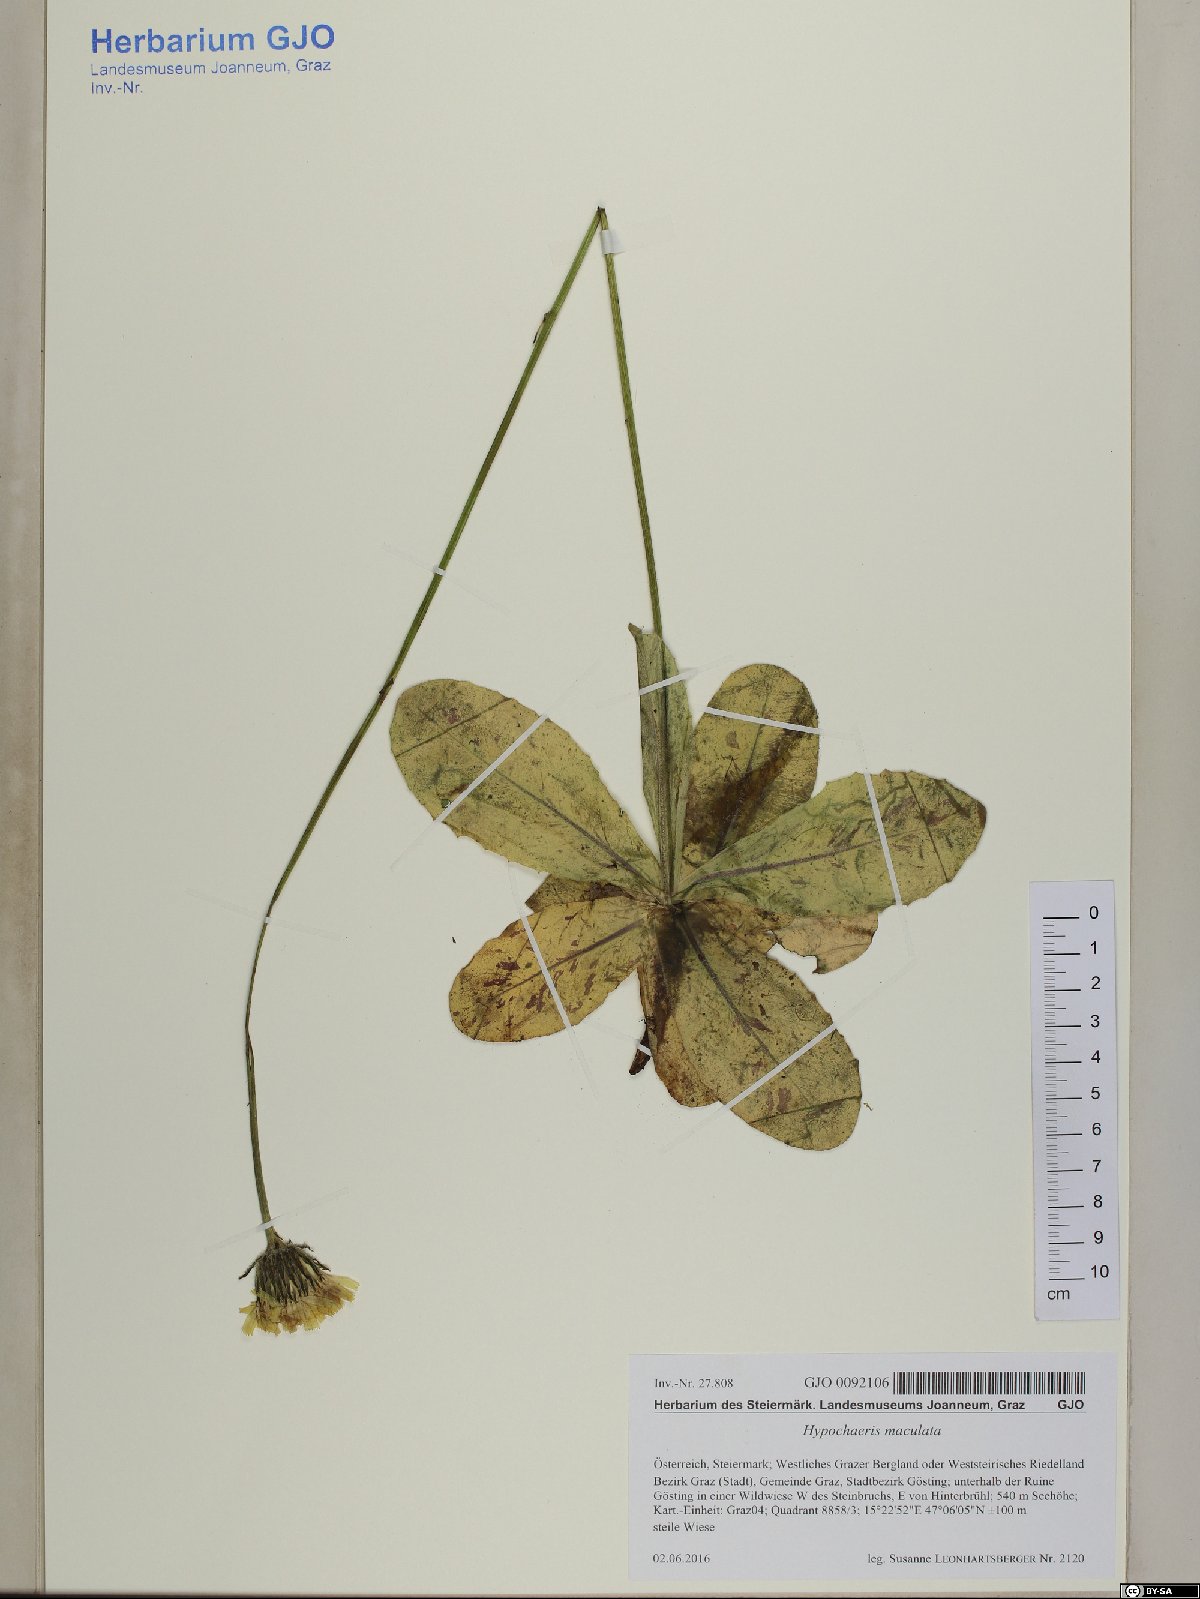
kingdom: Plantae
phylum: Tracheophyta
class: Magnoliopsida
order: Asterales
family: Asteraceae
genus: Trommsdorffia
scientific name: Trommsdorffia maculata
